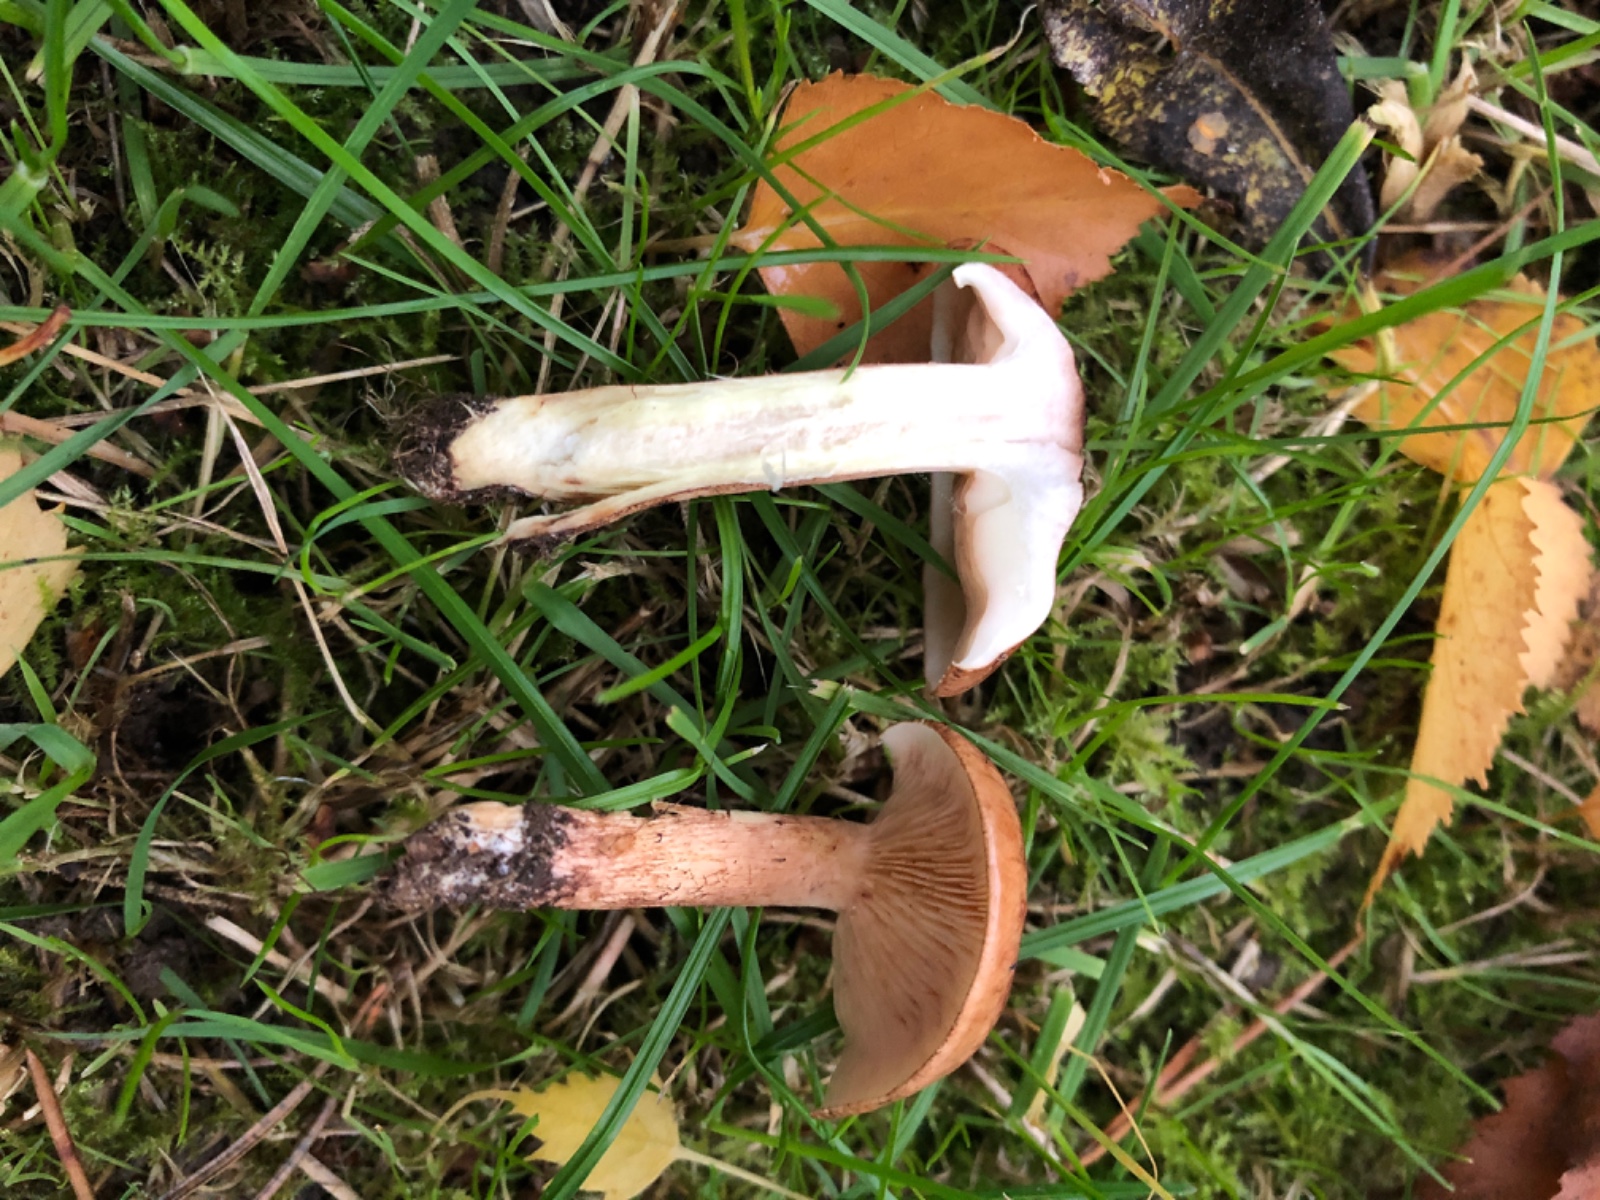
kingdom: Fungi
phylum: Basidiomycota
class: Agaricomycetes
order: Agaricales
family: Tricholomataceae
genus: Tricholoma
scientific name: Tricholoma fulvum
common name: birke-ridderhat
